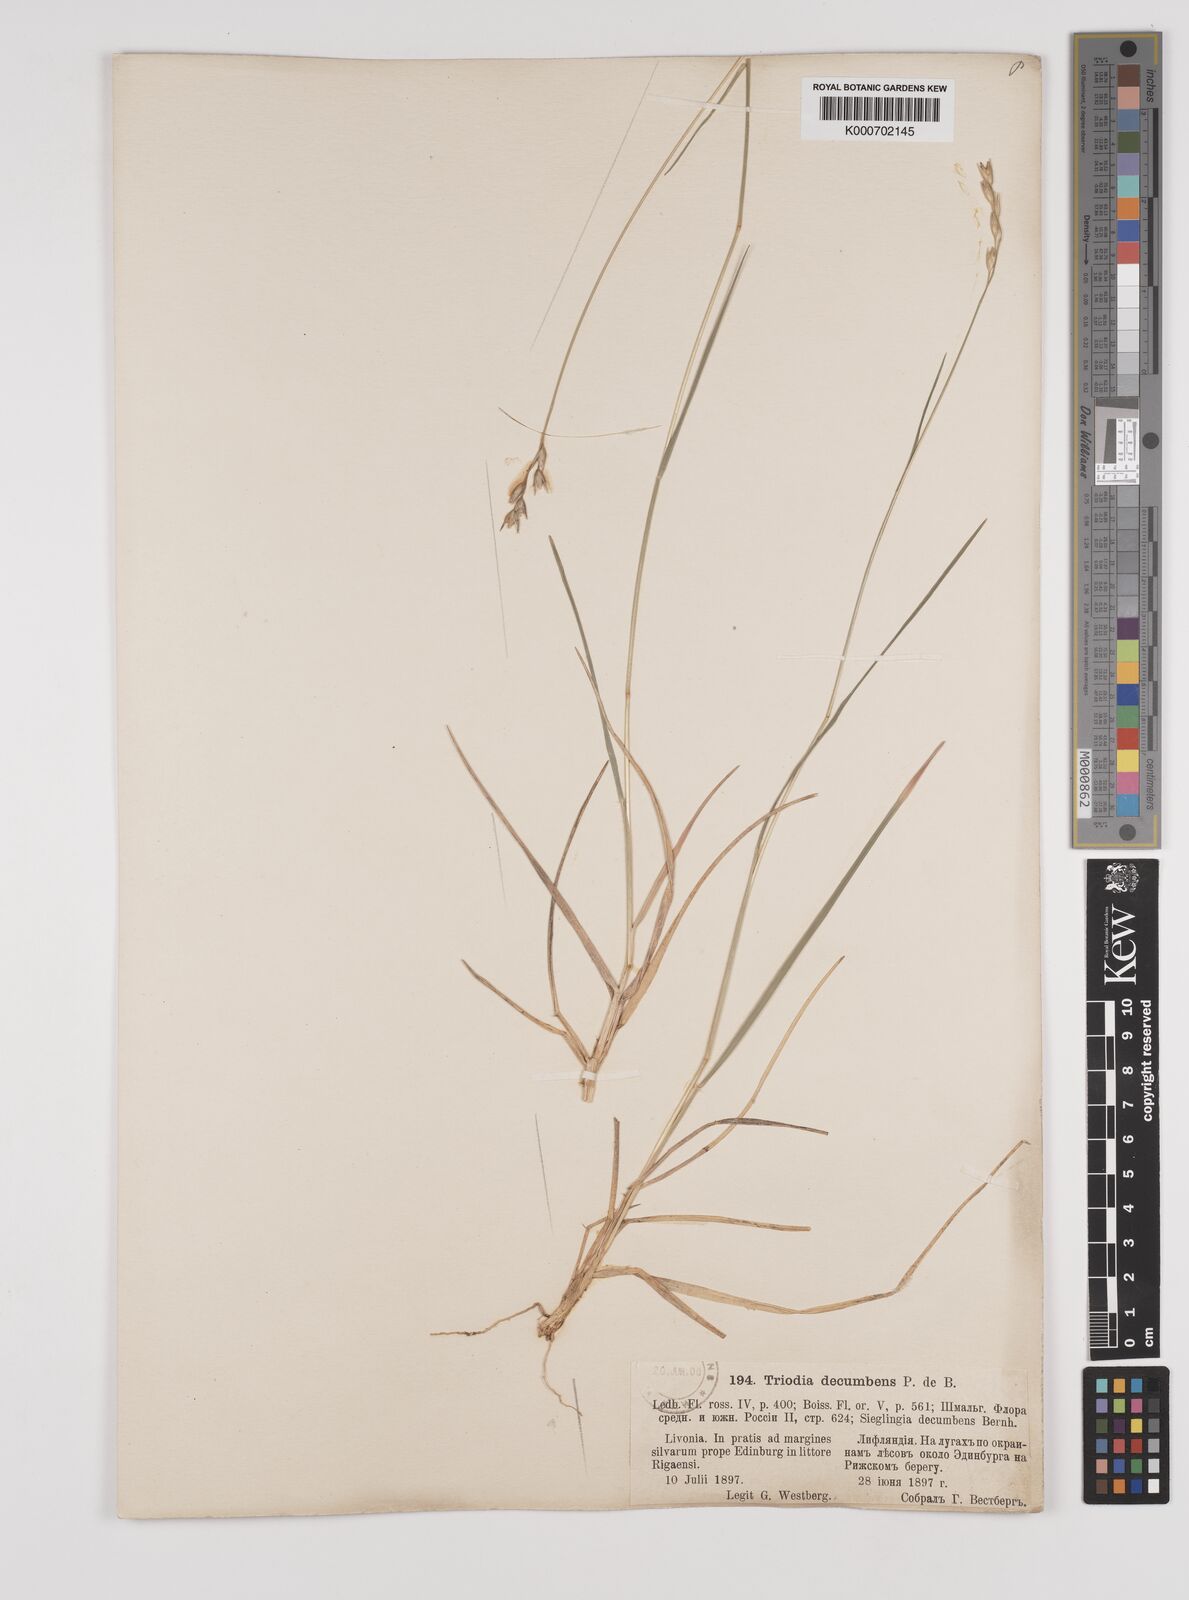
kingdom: Plantae
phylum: Tracheophyta
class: Liliopsida
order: Poales
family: Poaceae
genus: Danthonia
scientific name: Danthonia decumbens
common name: Common heathgrass
